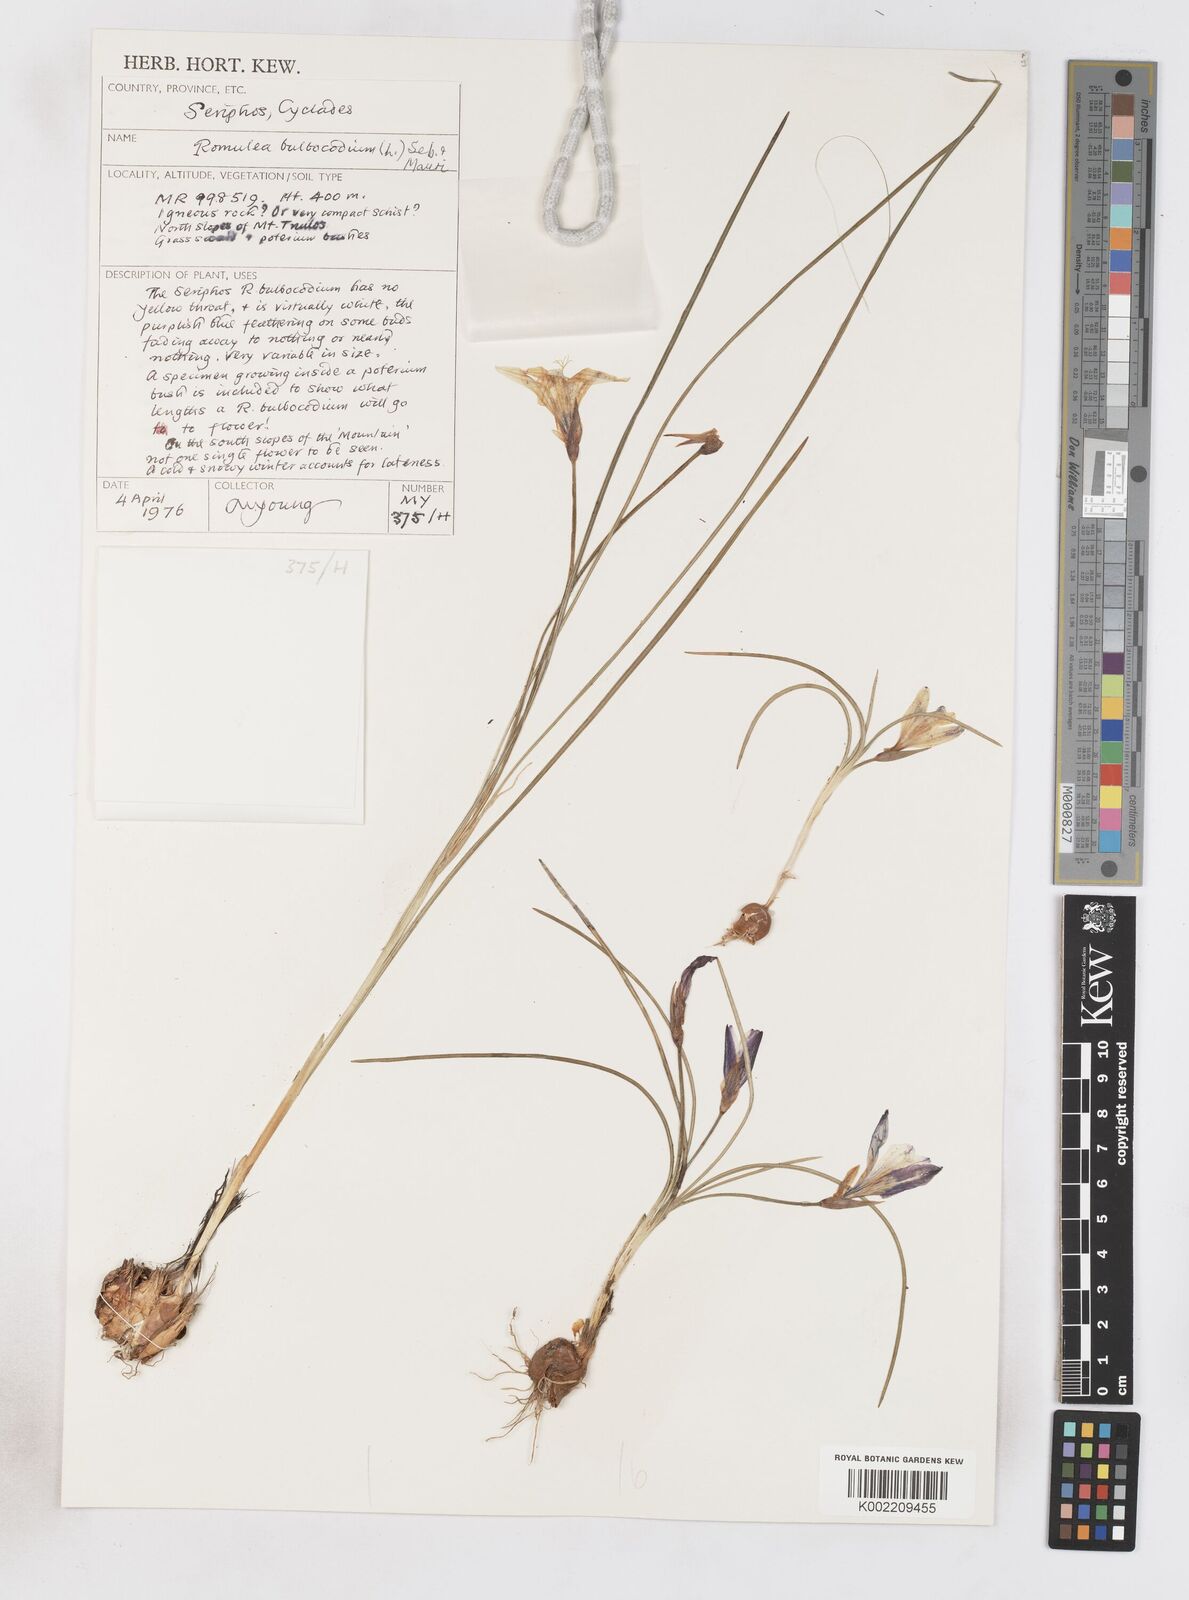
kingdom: Plantae
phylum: Tracheophyta
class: Liliopsida
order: Asparagales
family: Iridaceae
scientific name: Iridaceae
